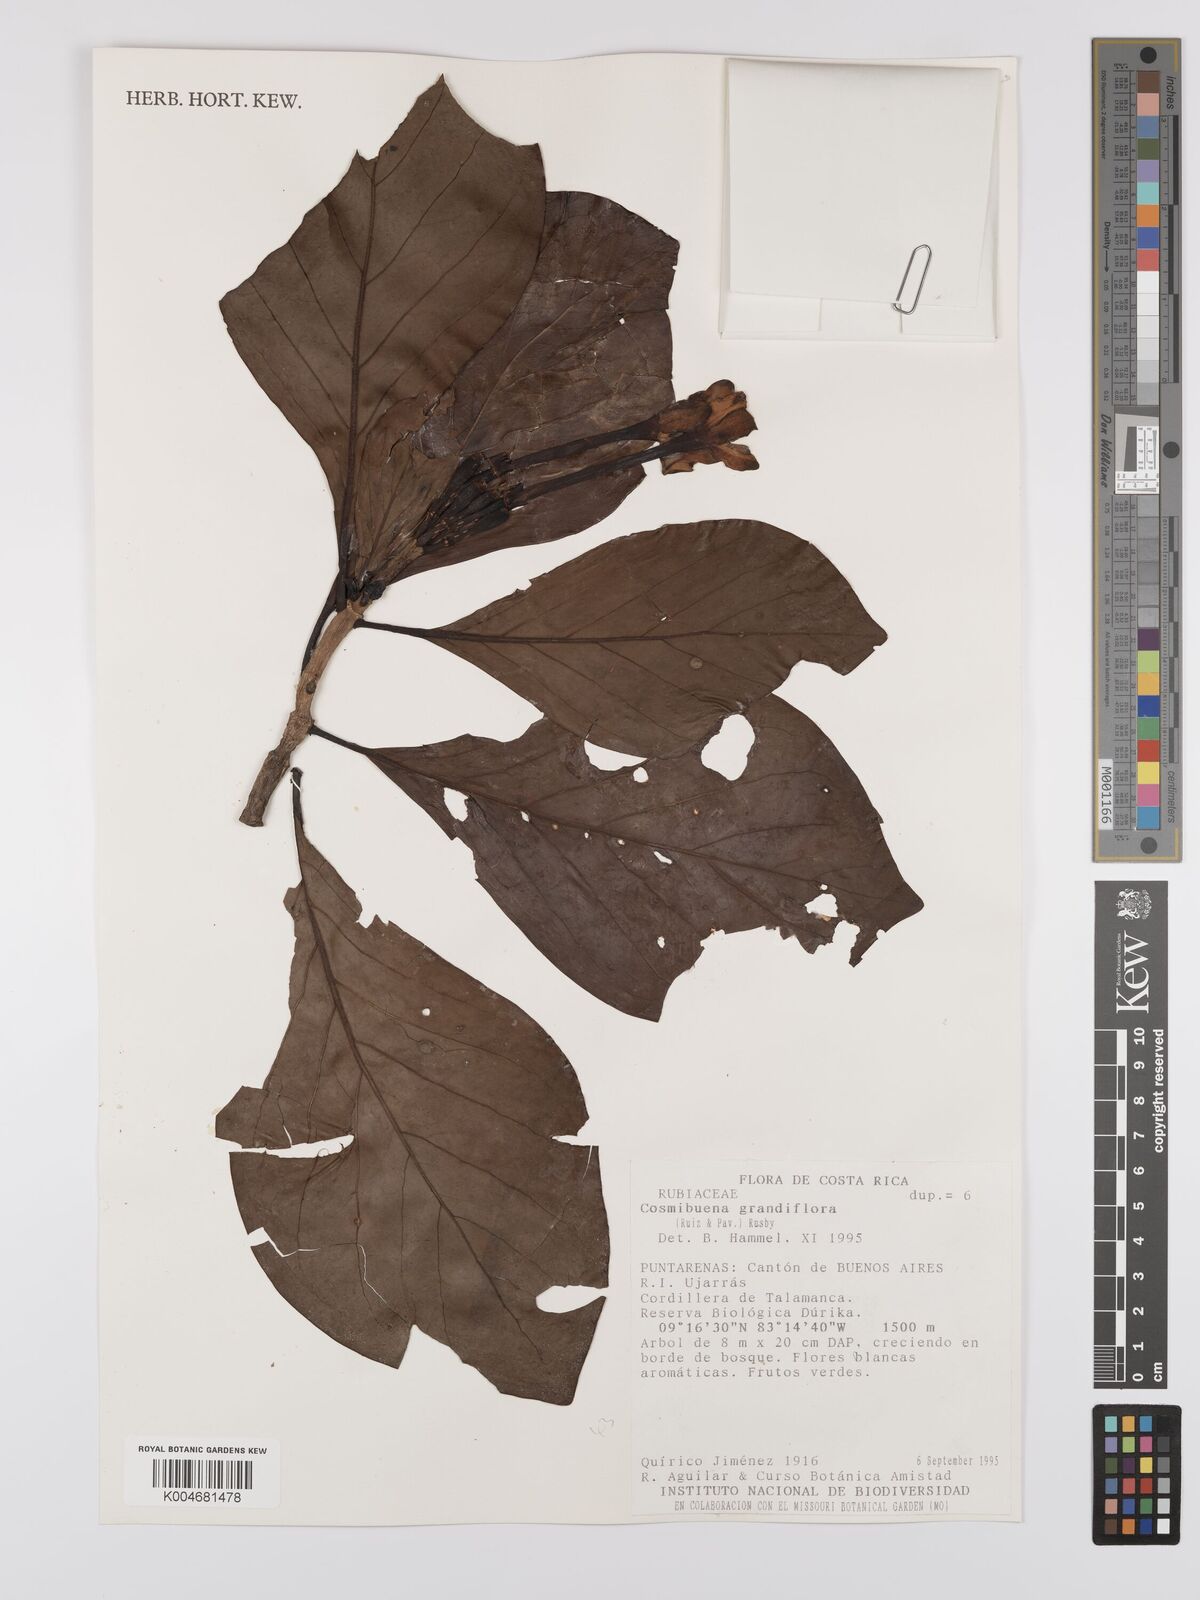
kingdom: Plantae
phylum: Tracheophyta
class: Magnoliopsida
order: Gentianales
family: Rubiaceae
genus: Cosmibuena
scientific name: Cosmibuena grandiflora
